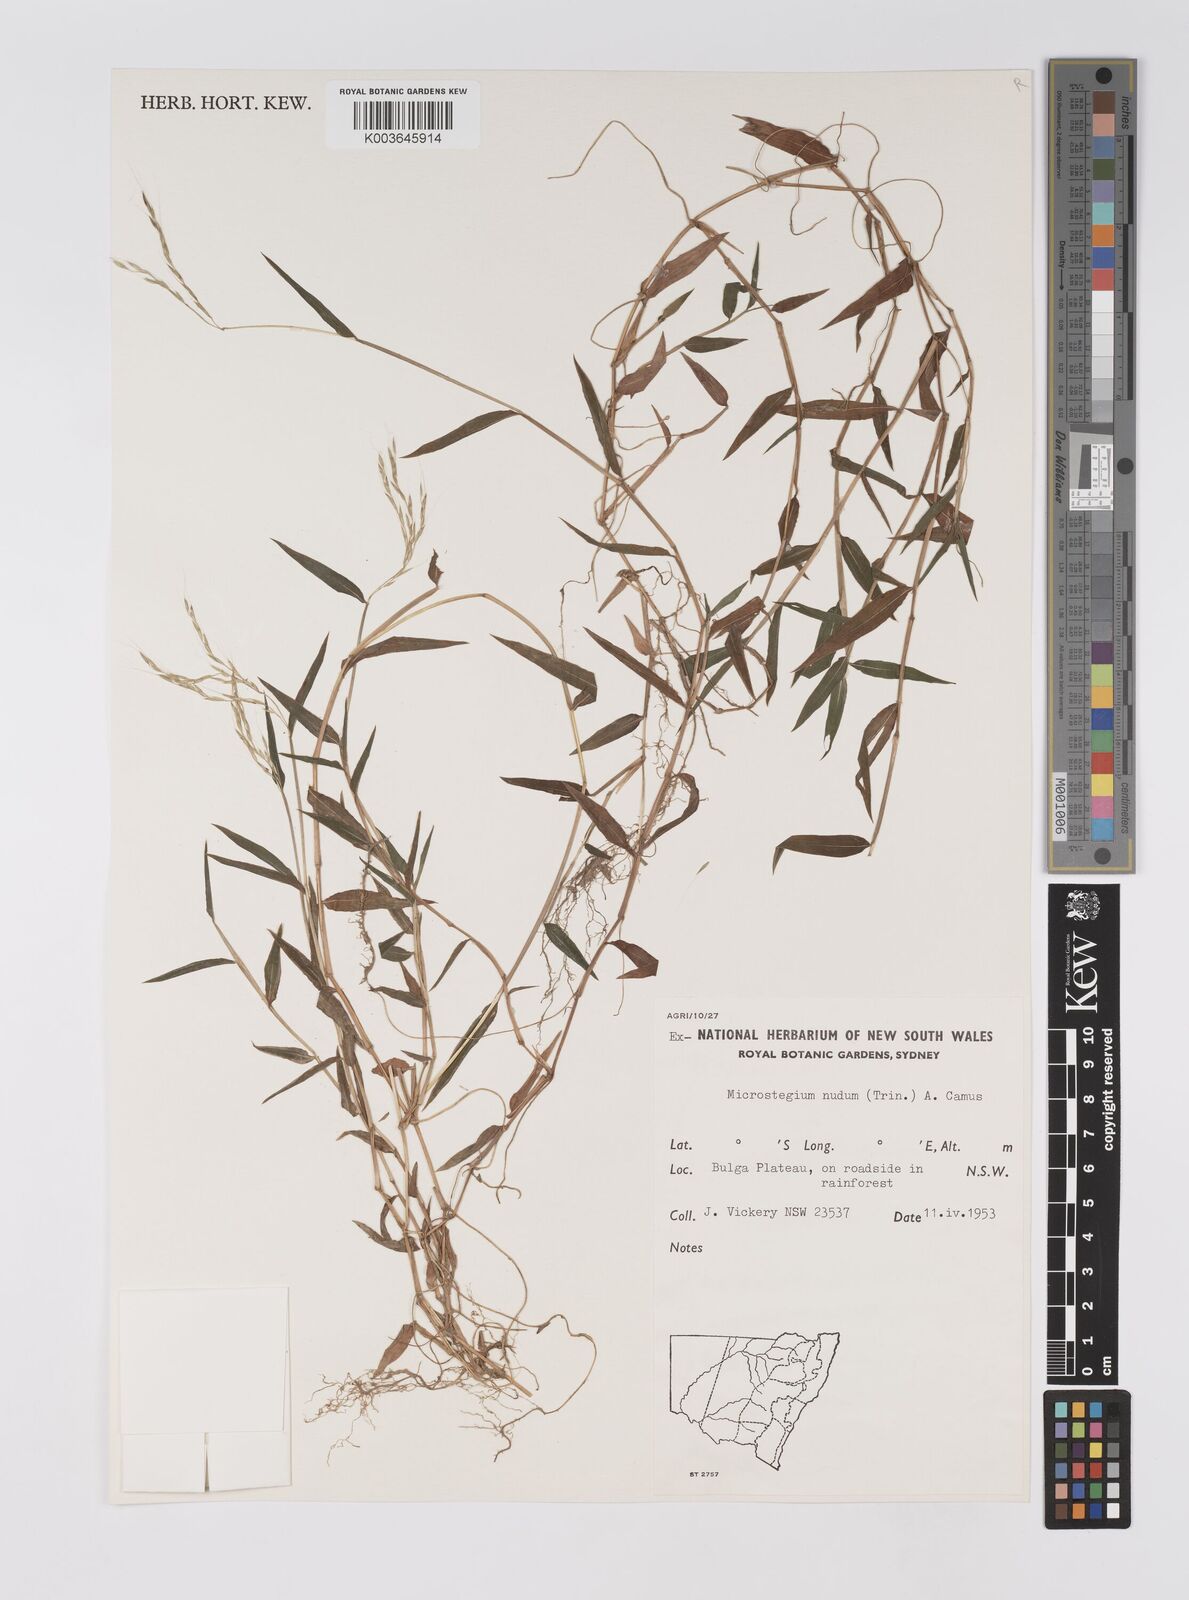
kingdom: Plantae
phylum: Tracheophyta
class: Liliopsida
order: Poales
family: Poaceae
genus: Microstegium
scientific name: Microstegium nudum
